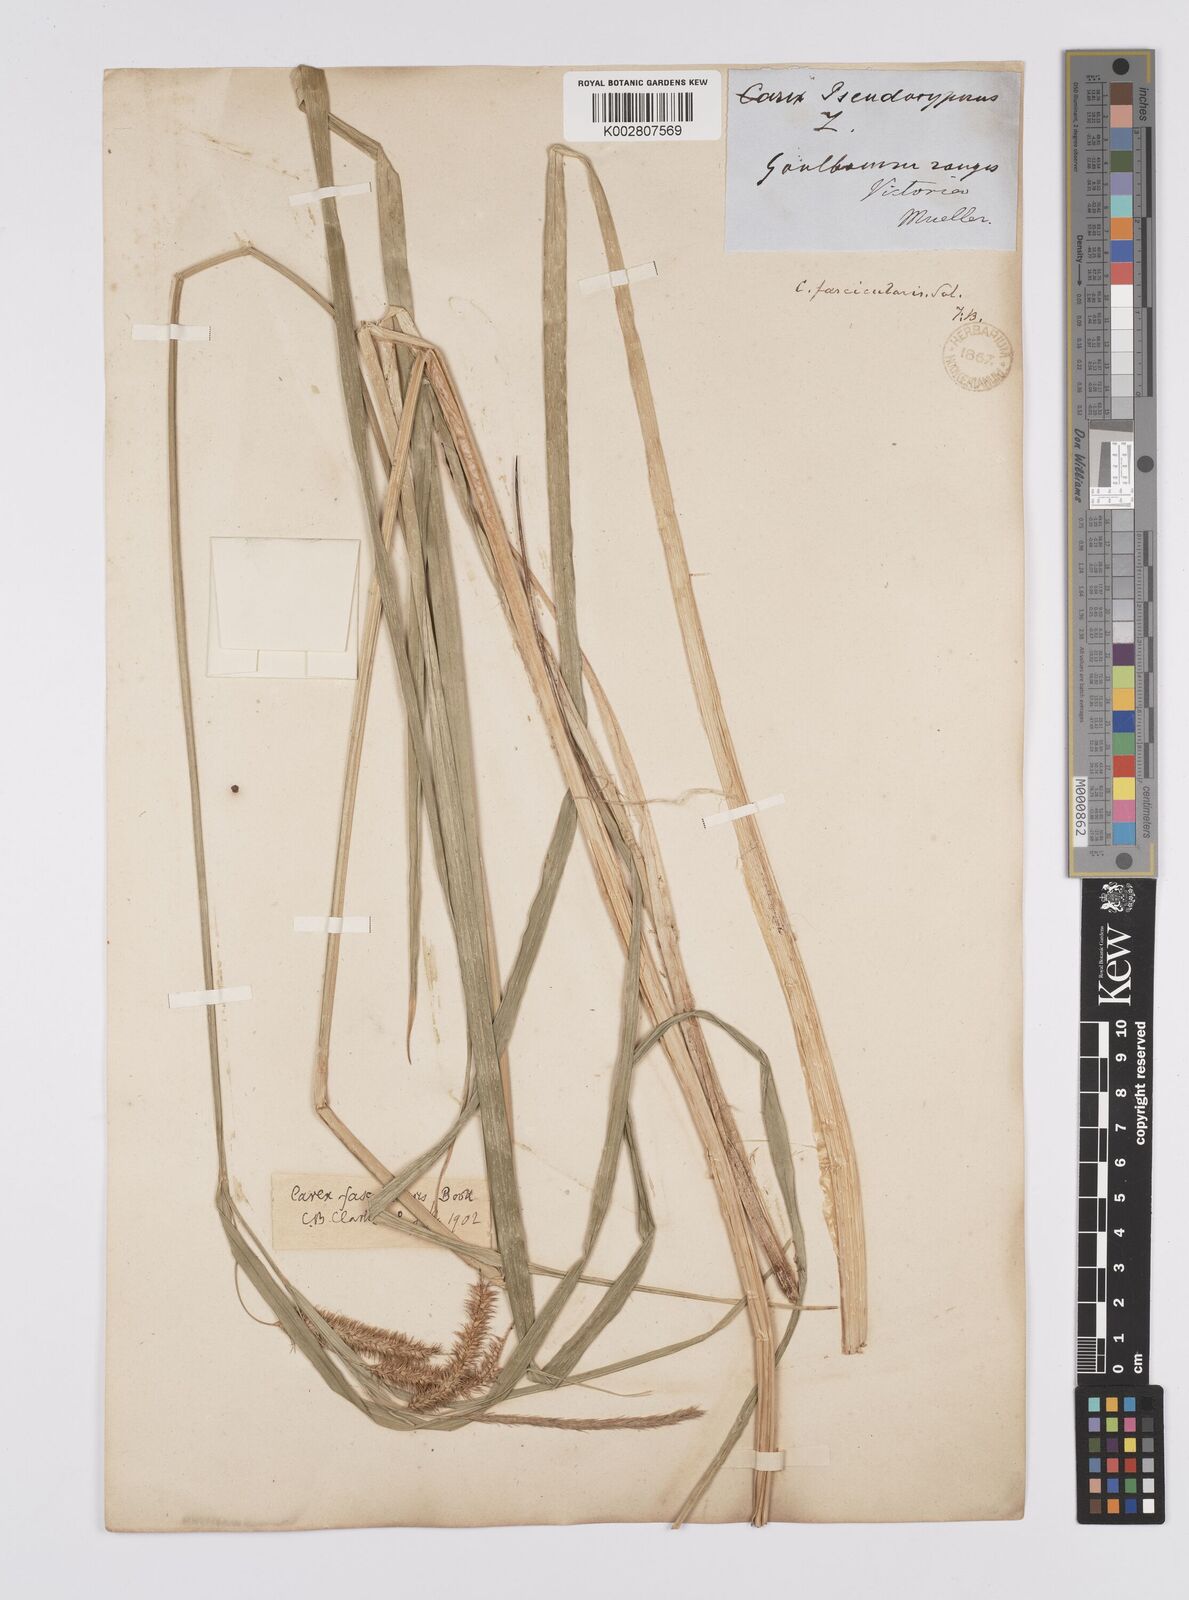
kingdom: Plantae
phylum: Tracheophyta
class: Liliopsida
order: Poales
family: Cyperaceae
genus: Carex
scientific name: Carex fascicularis
